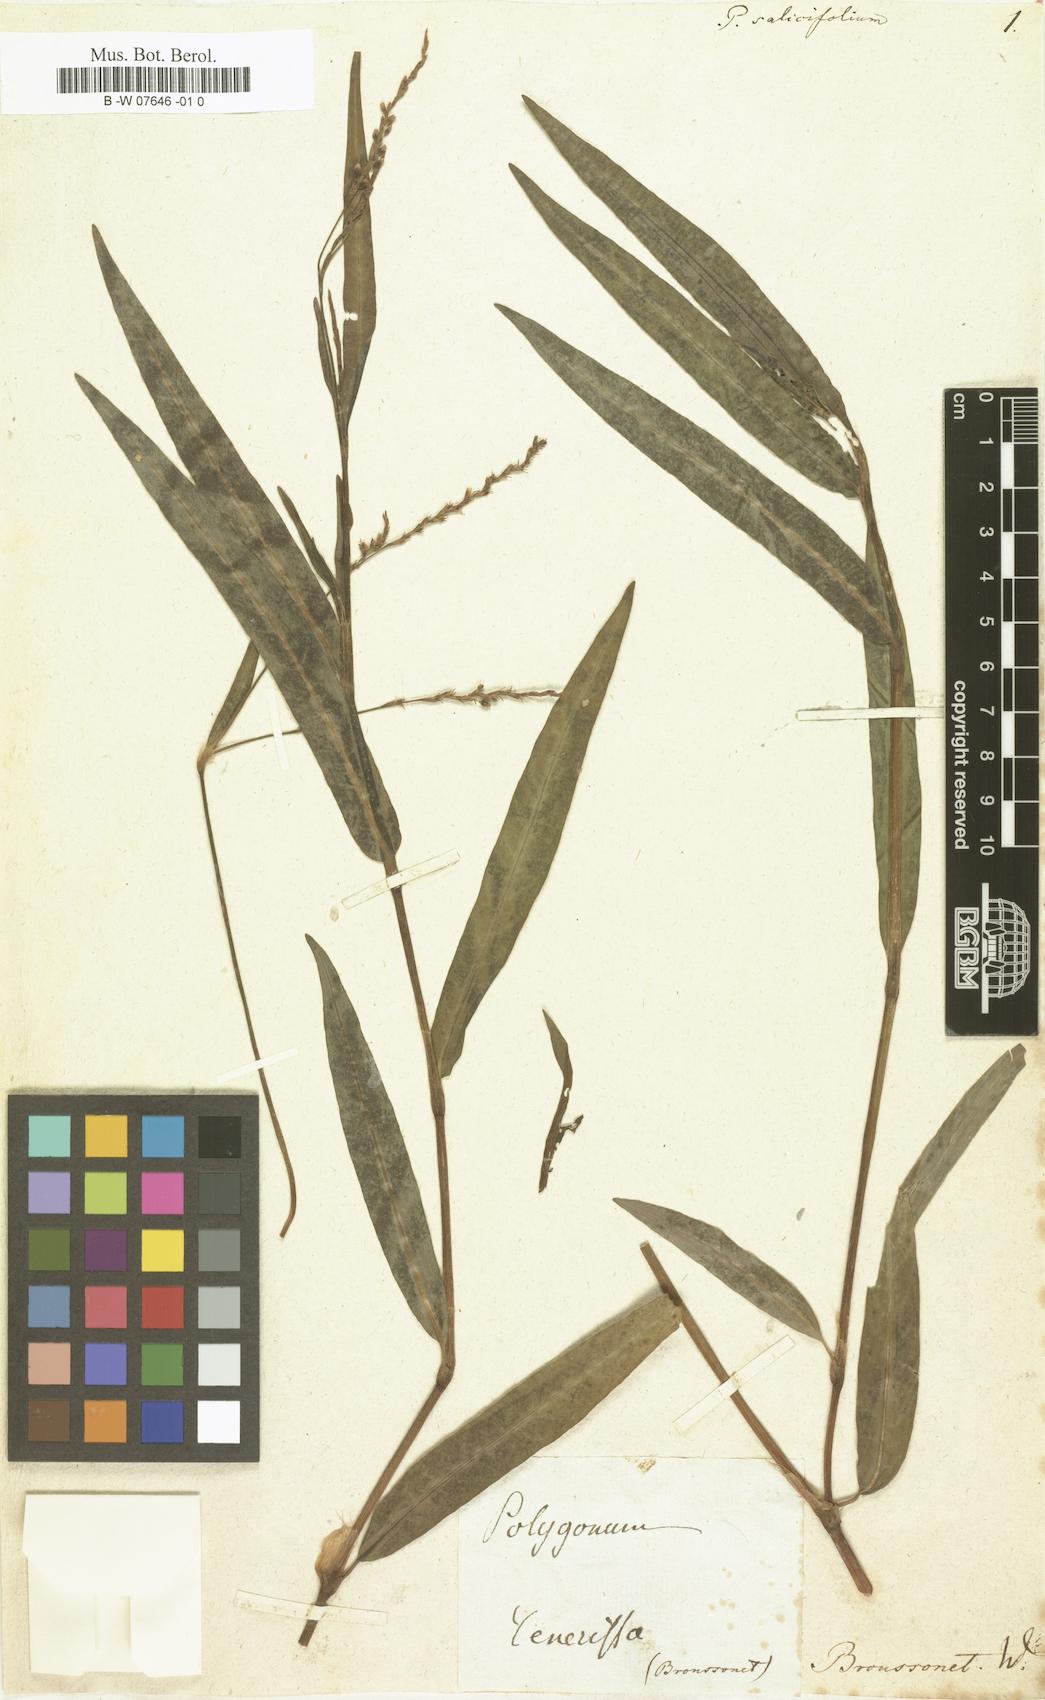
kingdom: Plantae
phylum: Tracheophyta
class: Magnoliopsida
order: Caryophyllales
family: Polygonaceae
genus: Persicaria
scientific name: Persicaria salicifolia
